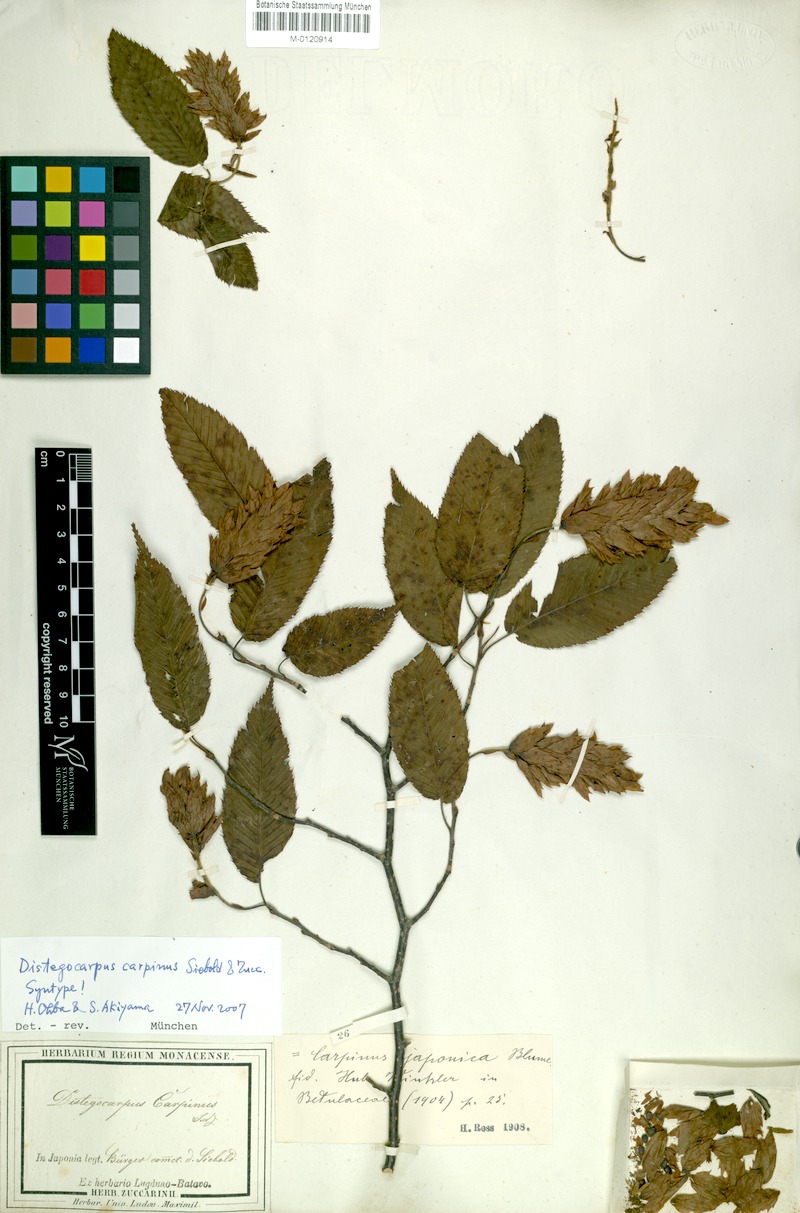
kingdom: Plantae
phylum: Tracheophyta
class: Magnoliopsida
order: Fagales
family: Betulaceae
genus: Carpinus
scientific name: Carpinus japonica
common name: Japanese hornbeam
